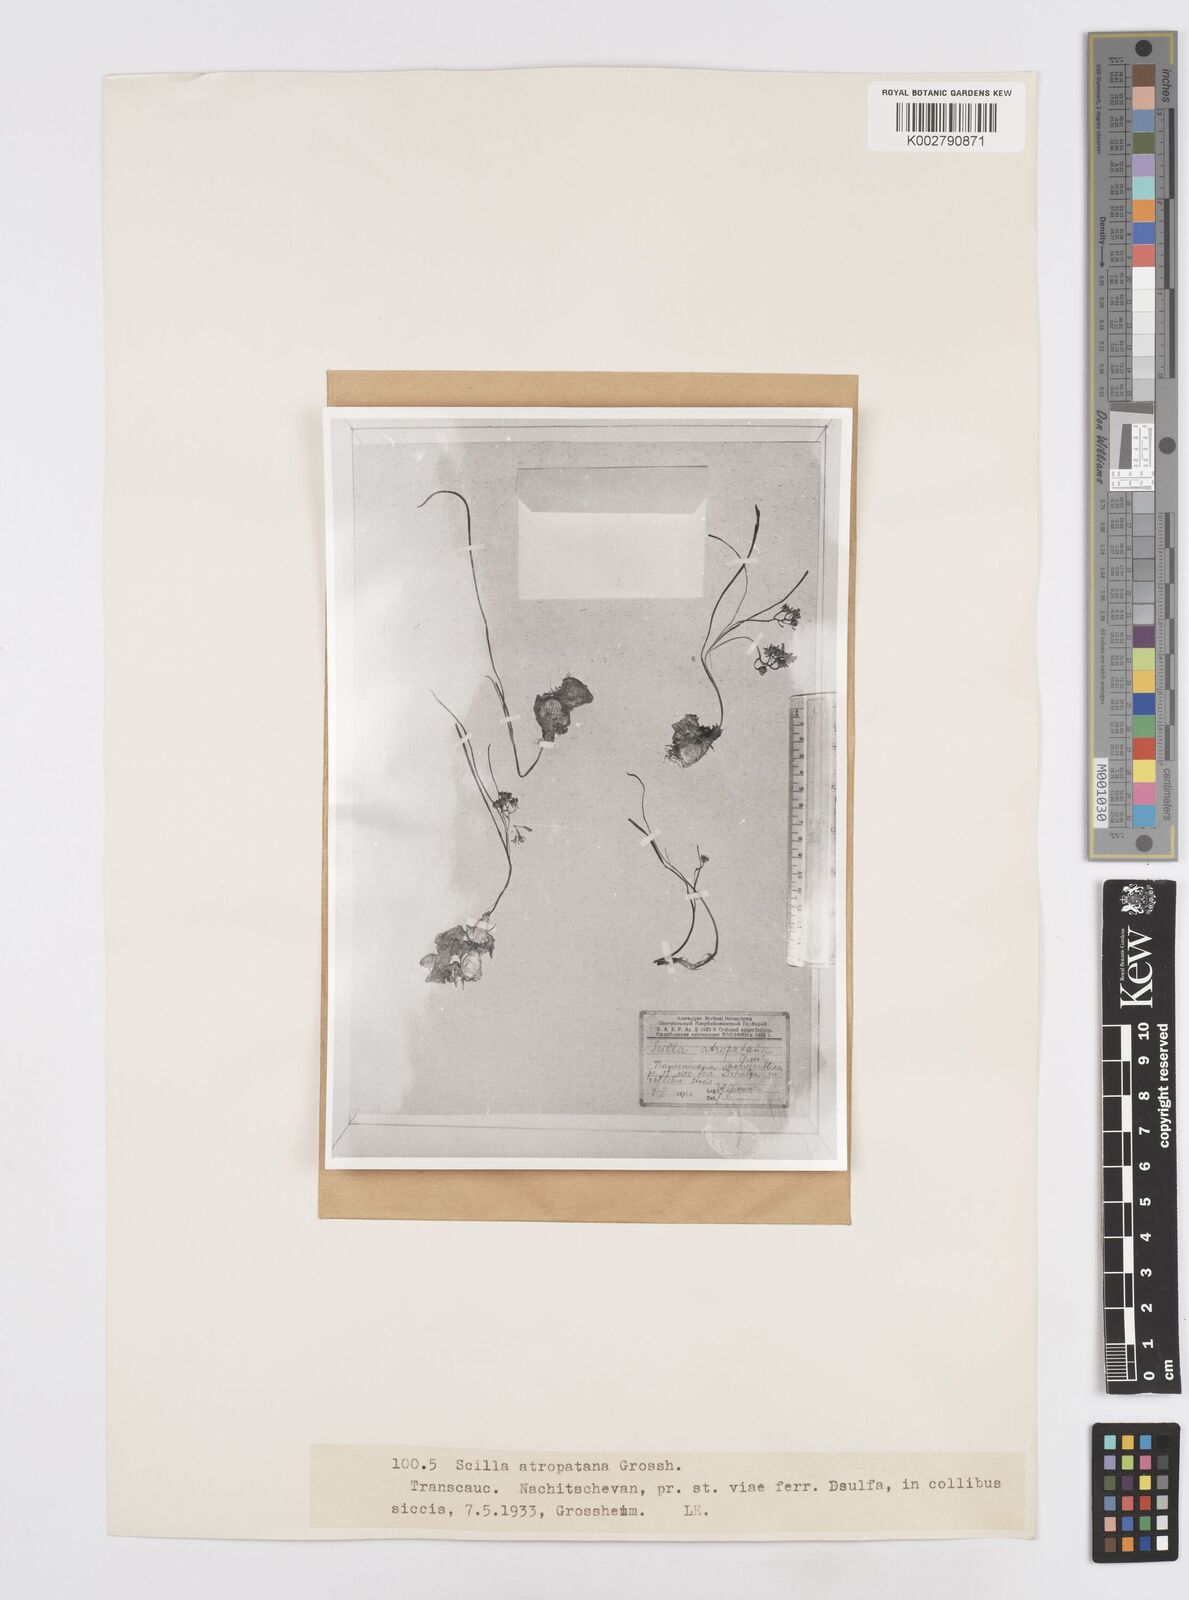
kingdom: Plantae
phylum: Tracheophyta
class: Liliopsida
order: Asparagales
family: Asparagaceae
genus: Hyacinthella
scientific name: Hyacinthella atropatana
